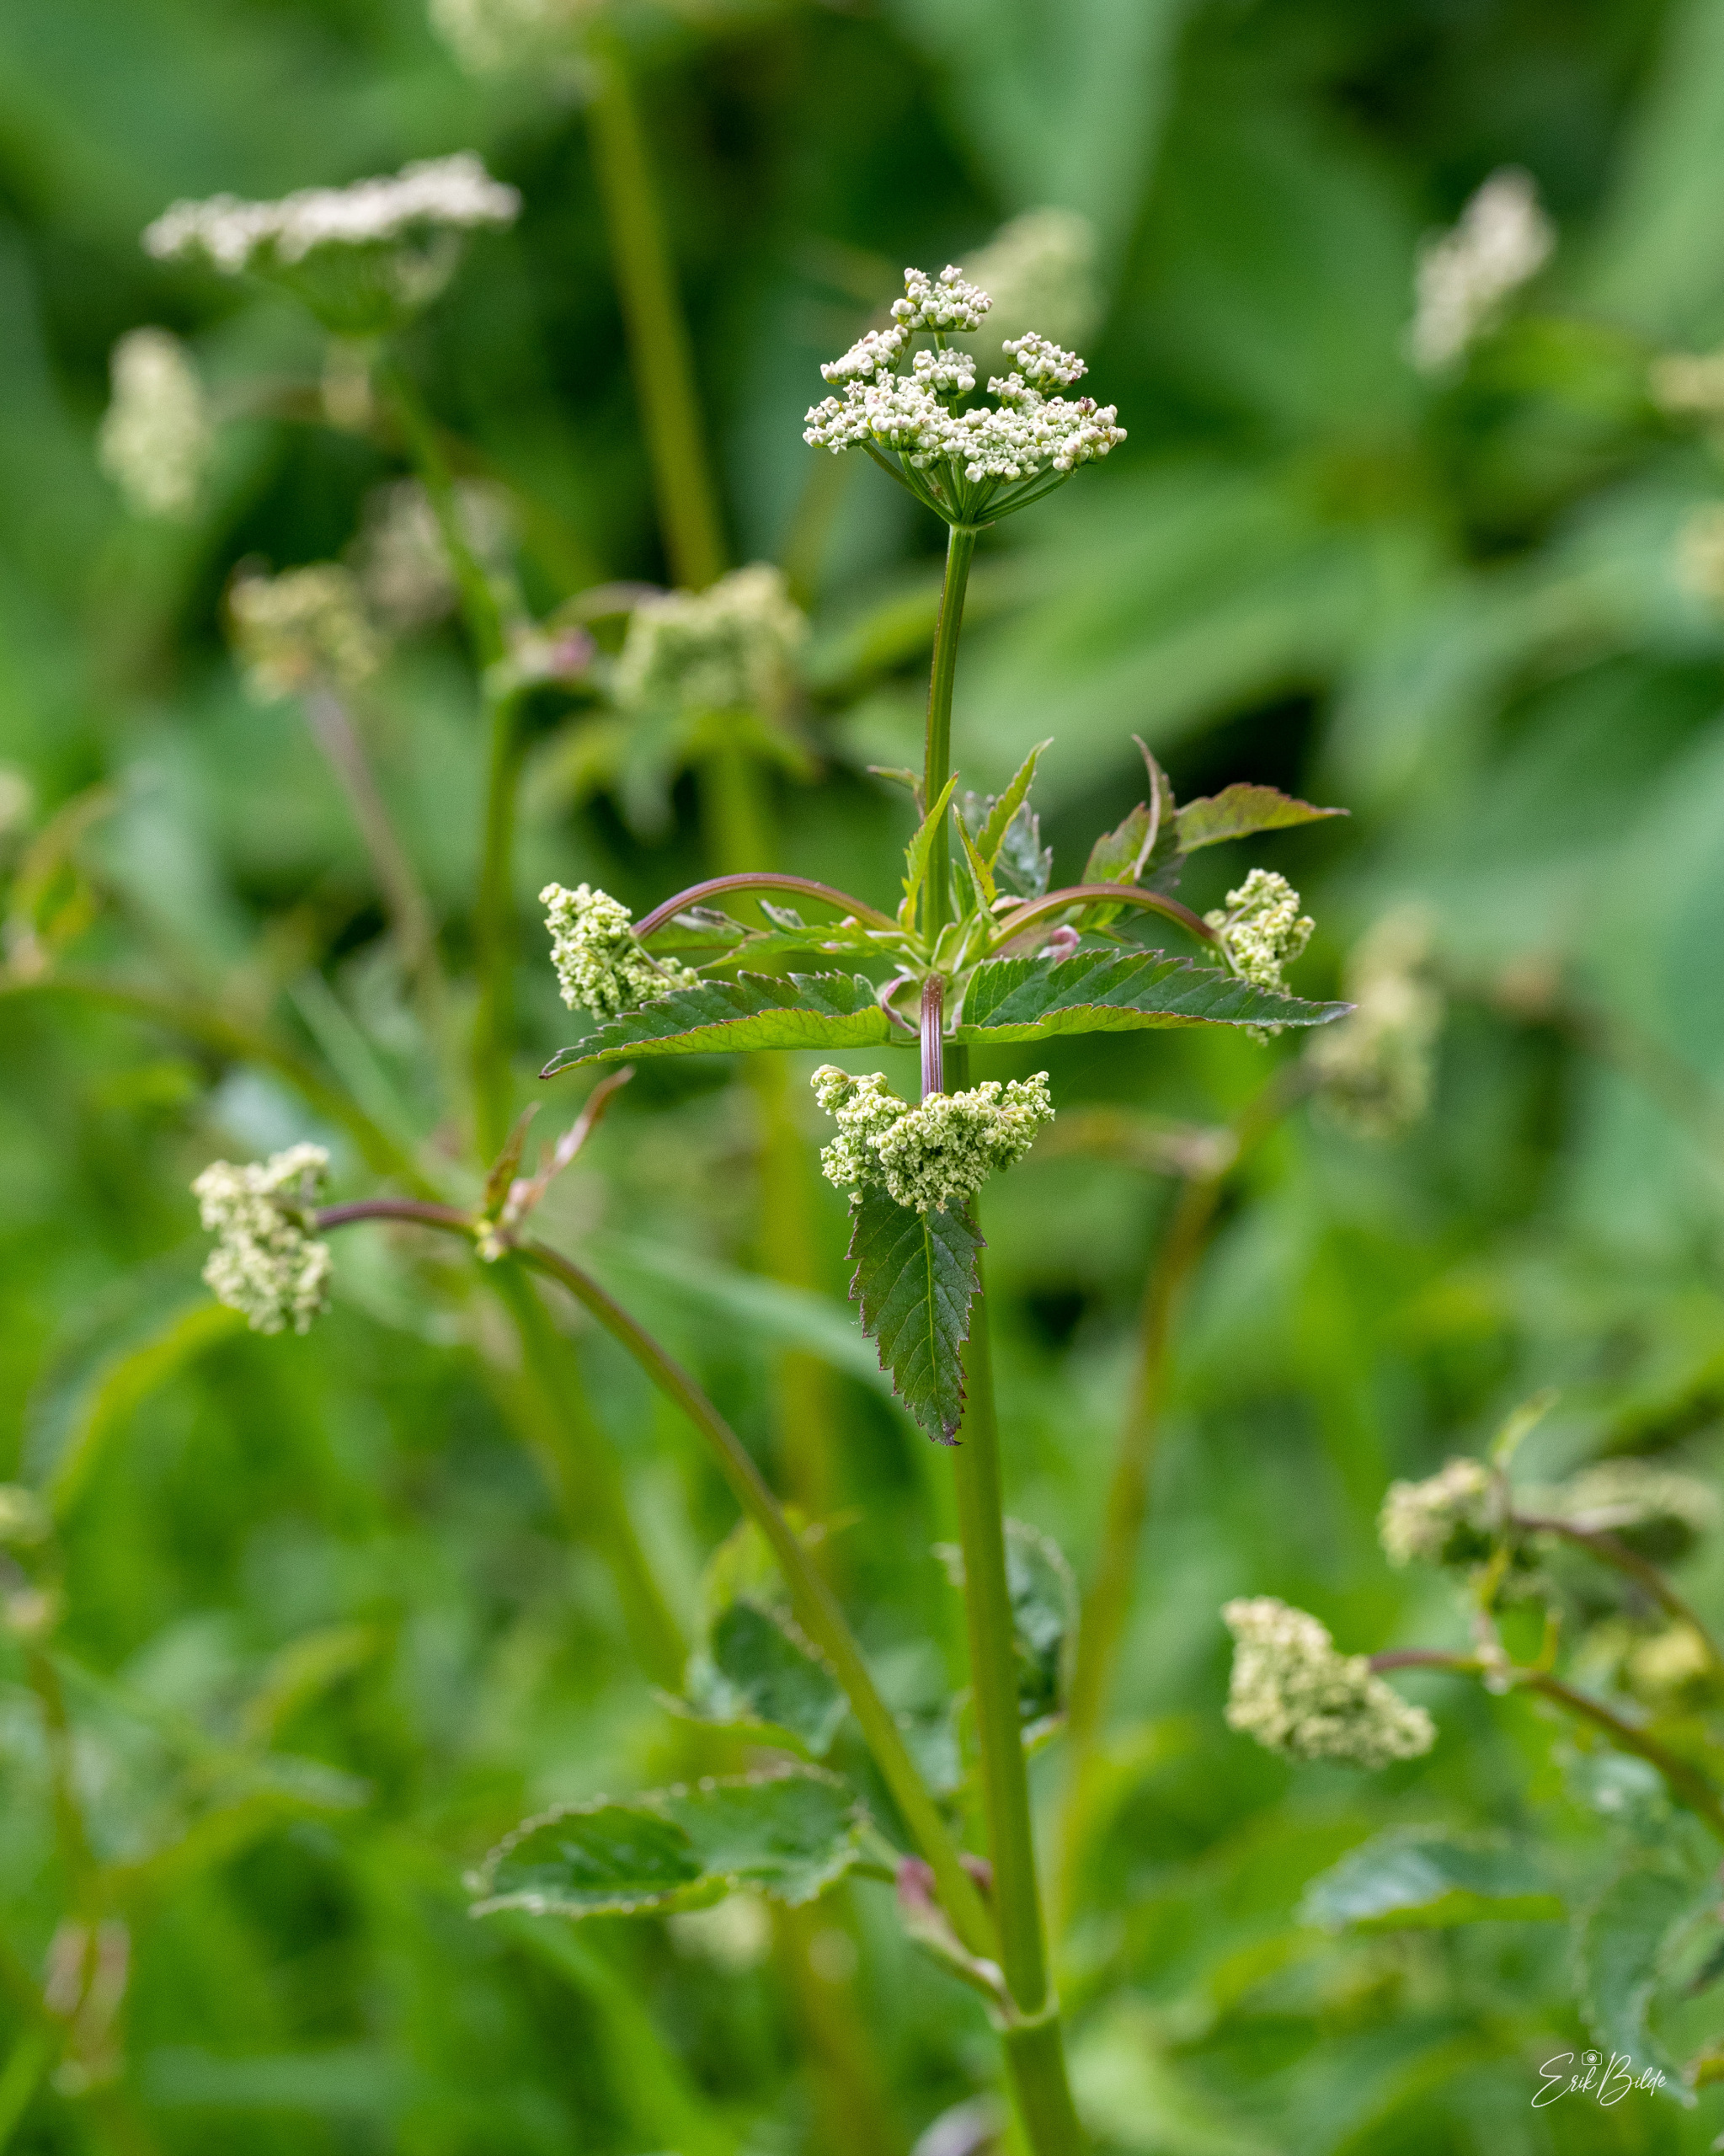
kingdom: Plantae
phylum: Tracheophyta
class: Magnoliopsida
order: Apiales
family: Apiaceae
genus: Aegopodium
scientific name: Aegopodium podagraria
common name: Skvalderkål
